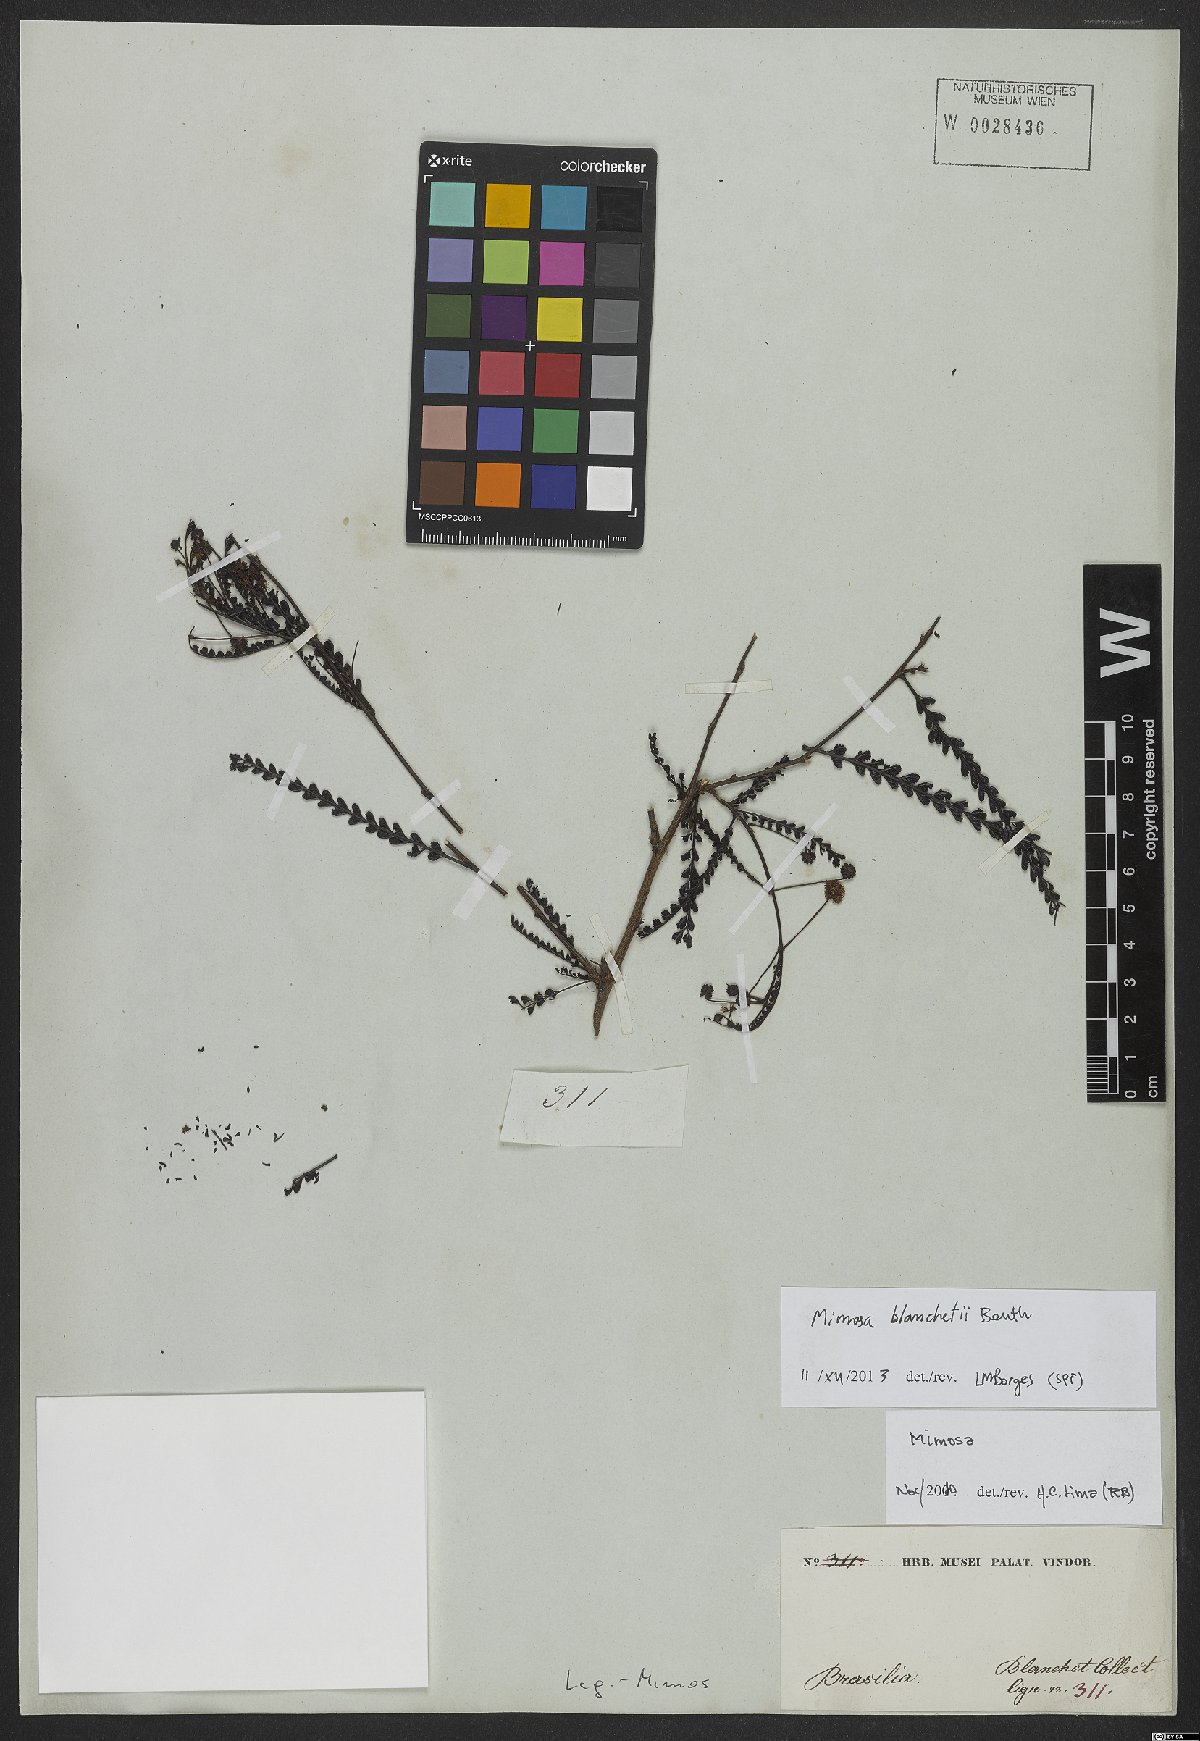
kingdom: Plantae
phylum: Tracheophyta
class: Magnoliopsida
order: Fabales
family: Fabaceae
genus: Mimosa
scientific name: Mimosa blanchetii
